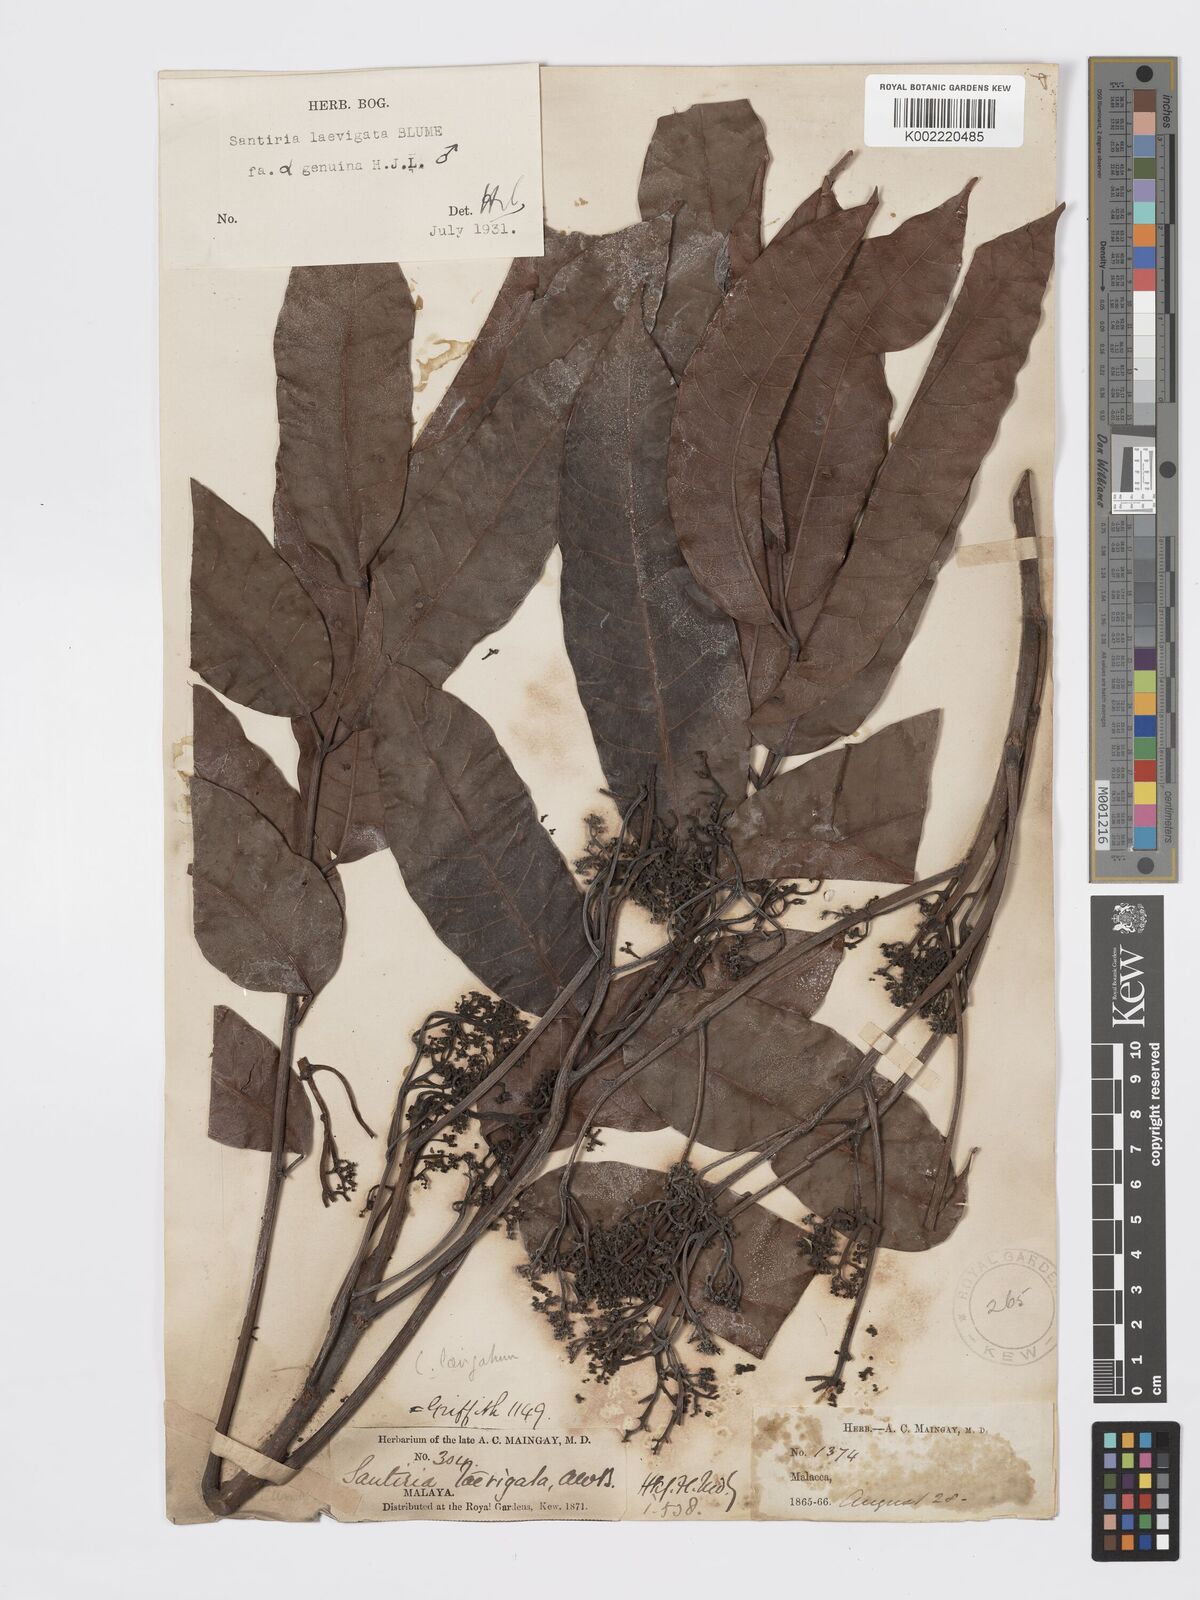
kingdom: Plantae
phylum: Tracheophyta
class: Magnoliopsida
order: Sapindales
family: Burseraceae
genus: Santiria
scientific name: Santiria laevigata
